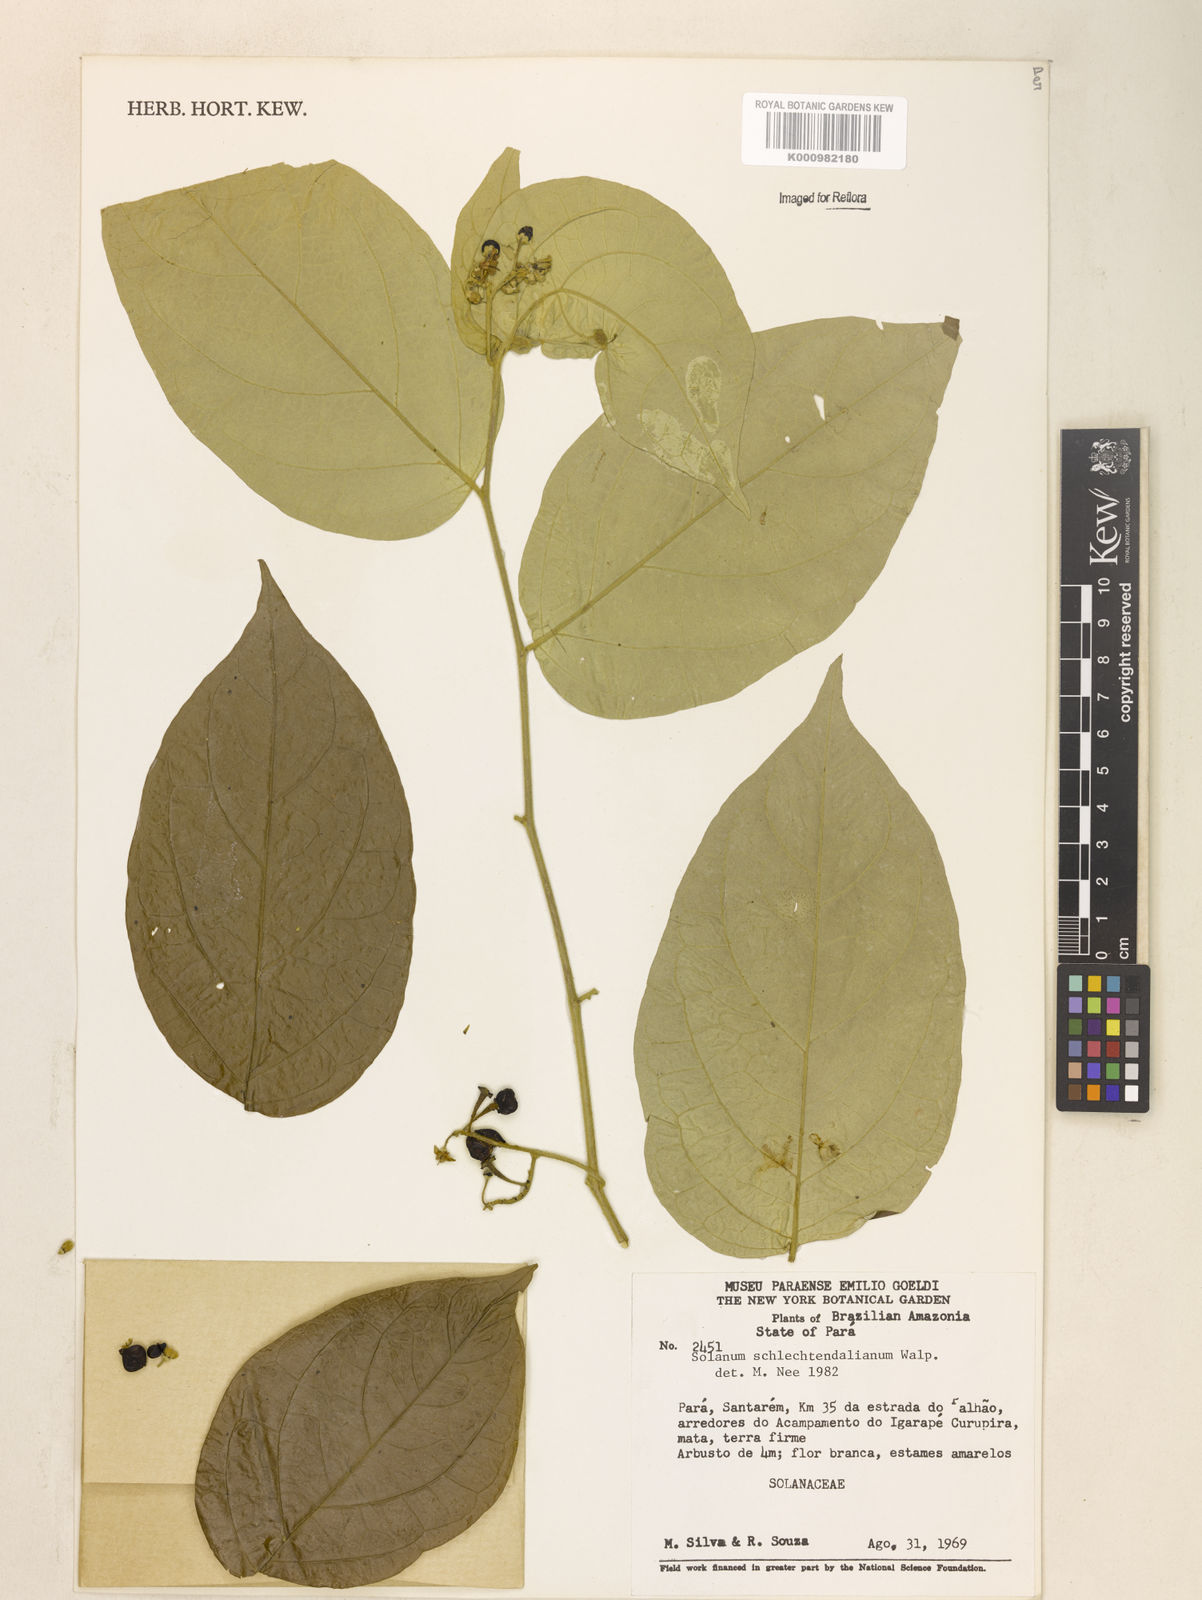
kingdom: Plantae
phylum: Tracheophyta
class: Magnoliopsida
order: Solanales
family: Solanaceae
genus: Solanum
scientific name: Solanum schlechtendalianum
